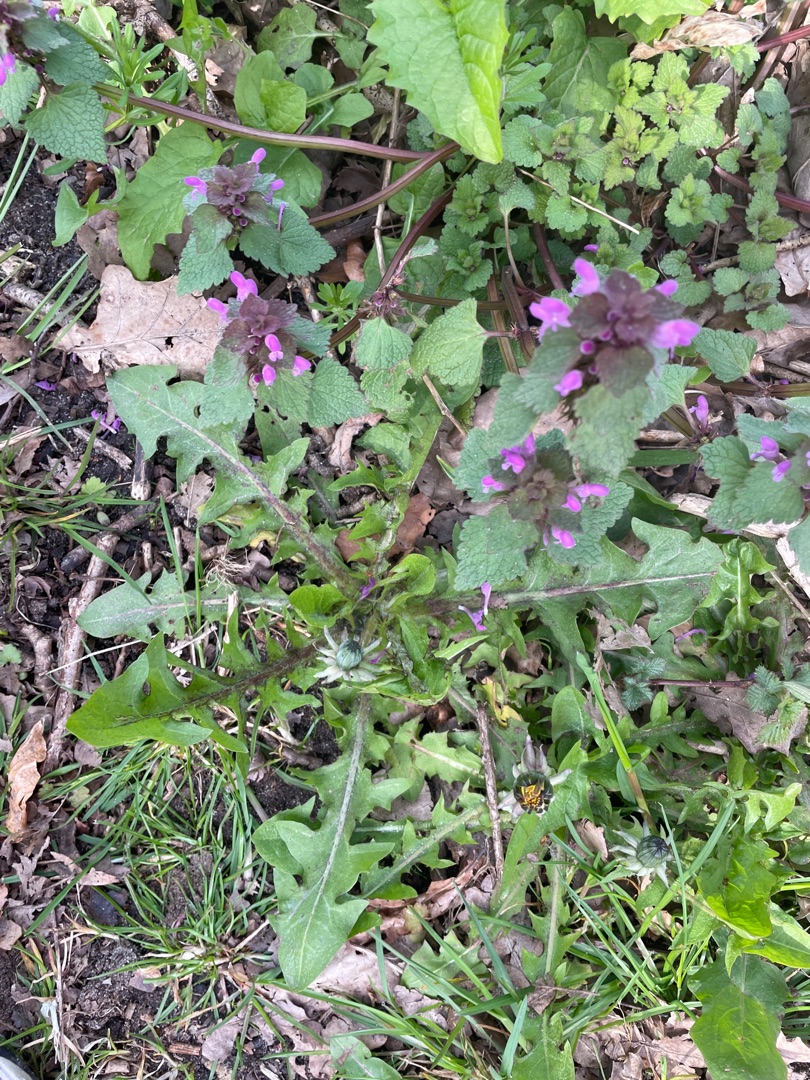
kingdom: Plantae
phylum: Tracheophyta
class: Magnoliopsida
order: Lamiales
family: Lamiaceae
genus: Lamium
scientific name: Lamium purpureum
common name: Rød tvetand
